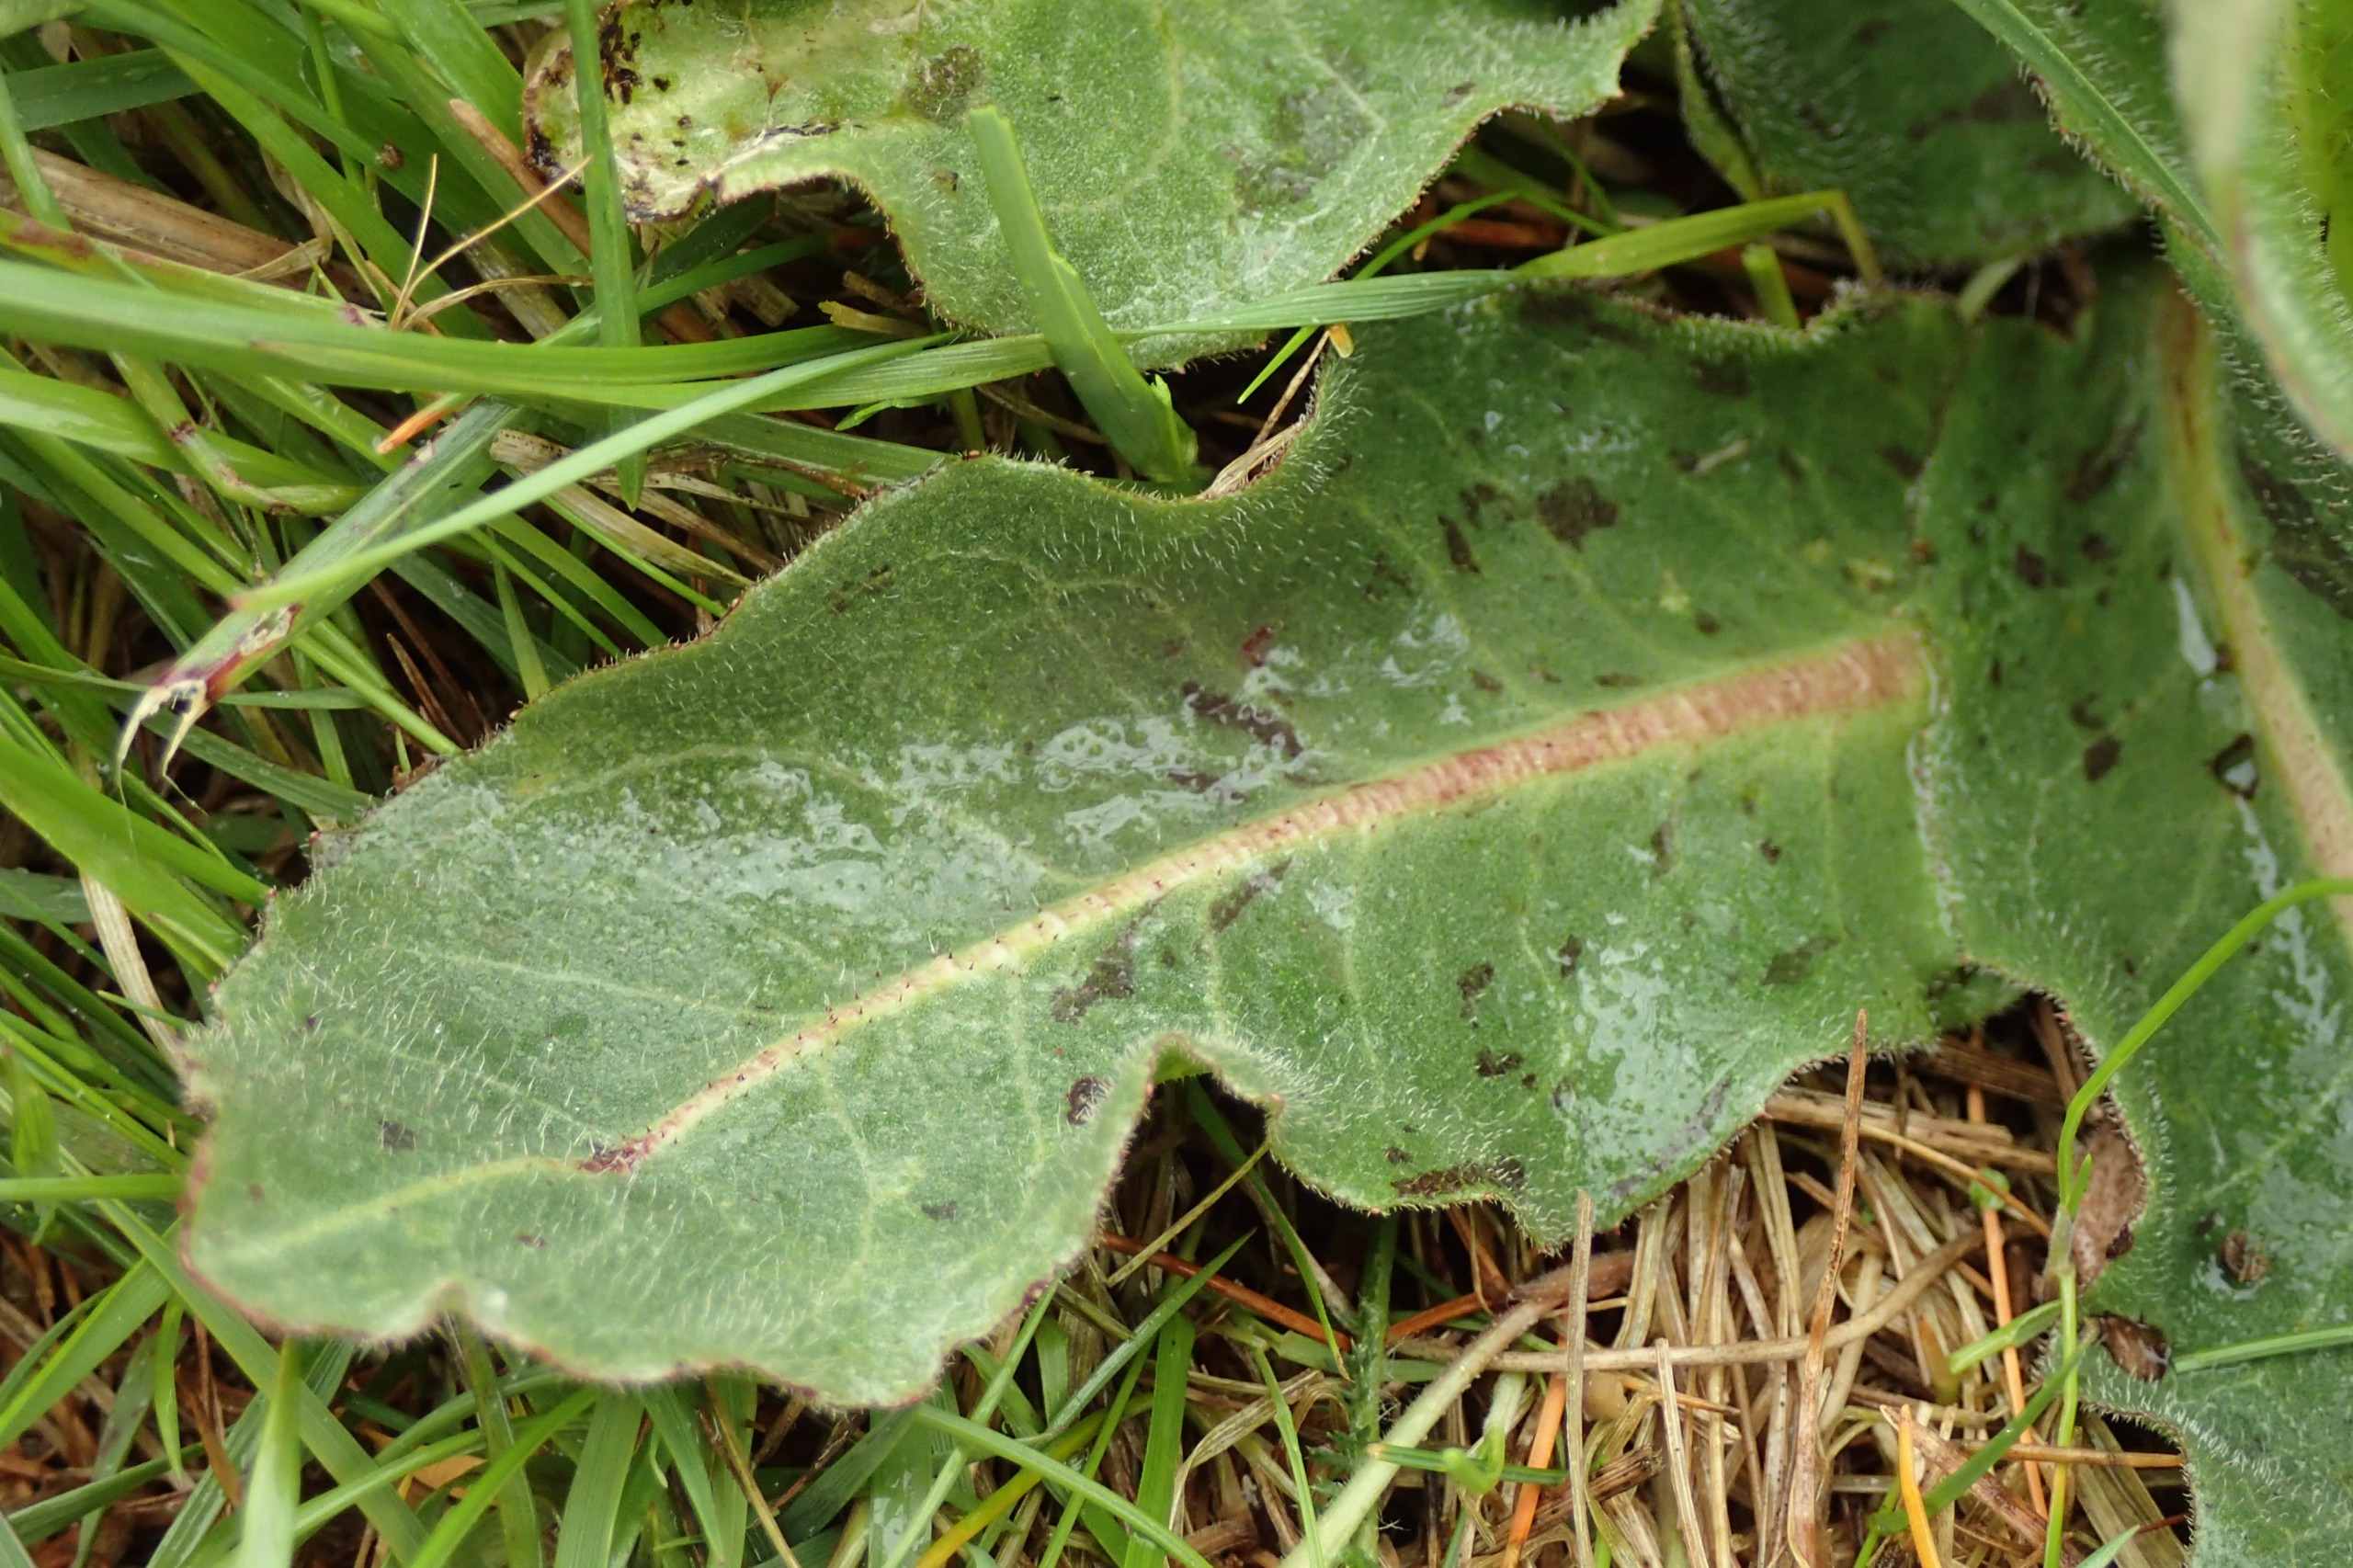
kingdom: Plantae
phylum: Tracheophyta
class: Magnoliopsida
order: Asterales
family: Asteraceae
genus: Trommsdorffia
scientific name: Trommsdorffia maculata
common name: Plettet kongepen
